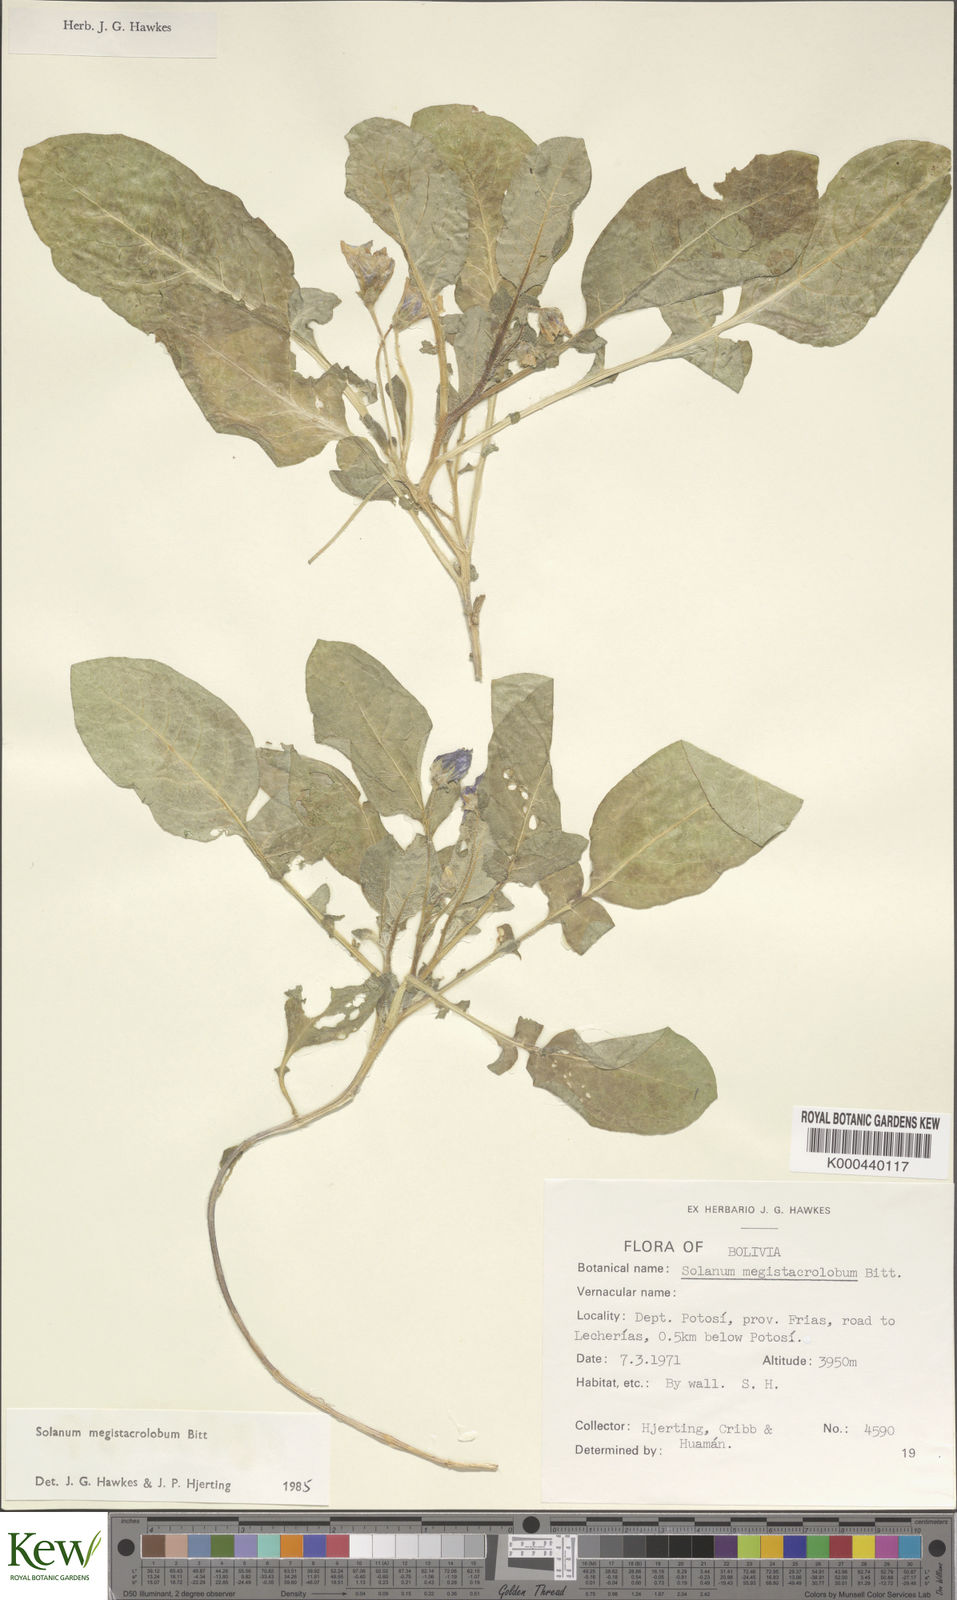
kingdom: Plantae
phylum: Tracheophyta
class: Magnoliopsida
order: Solanales
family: Solanaceae
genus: Solanum
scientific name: Solanum boliviense
